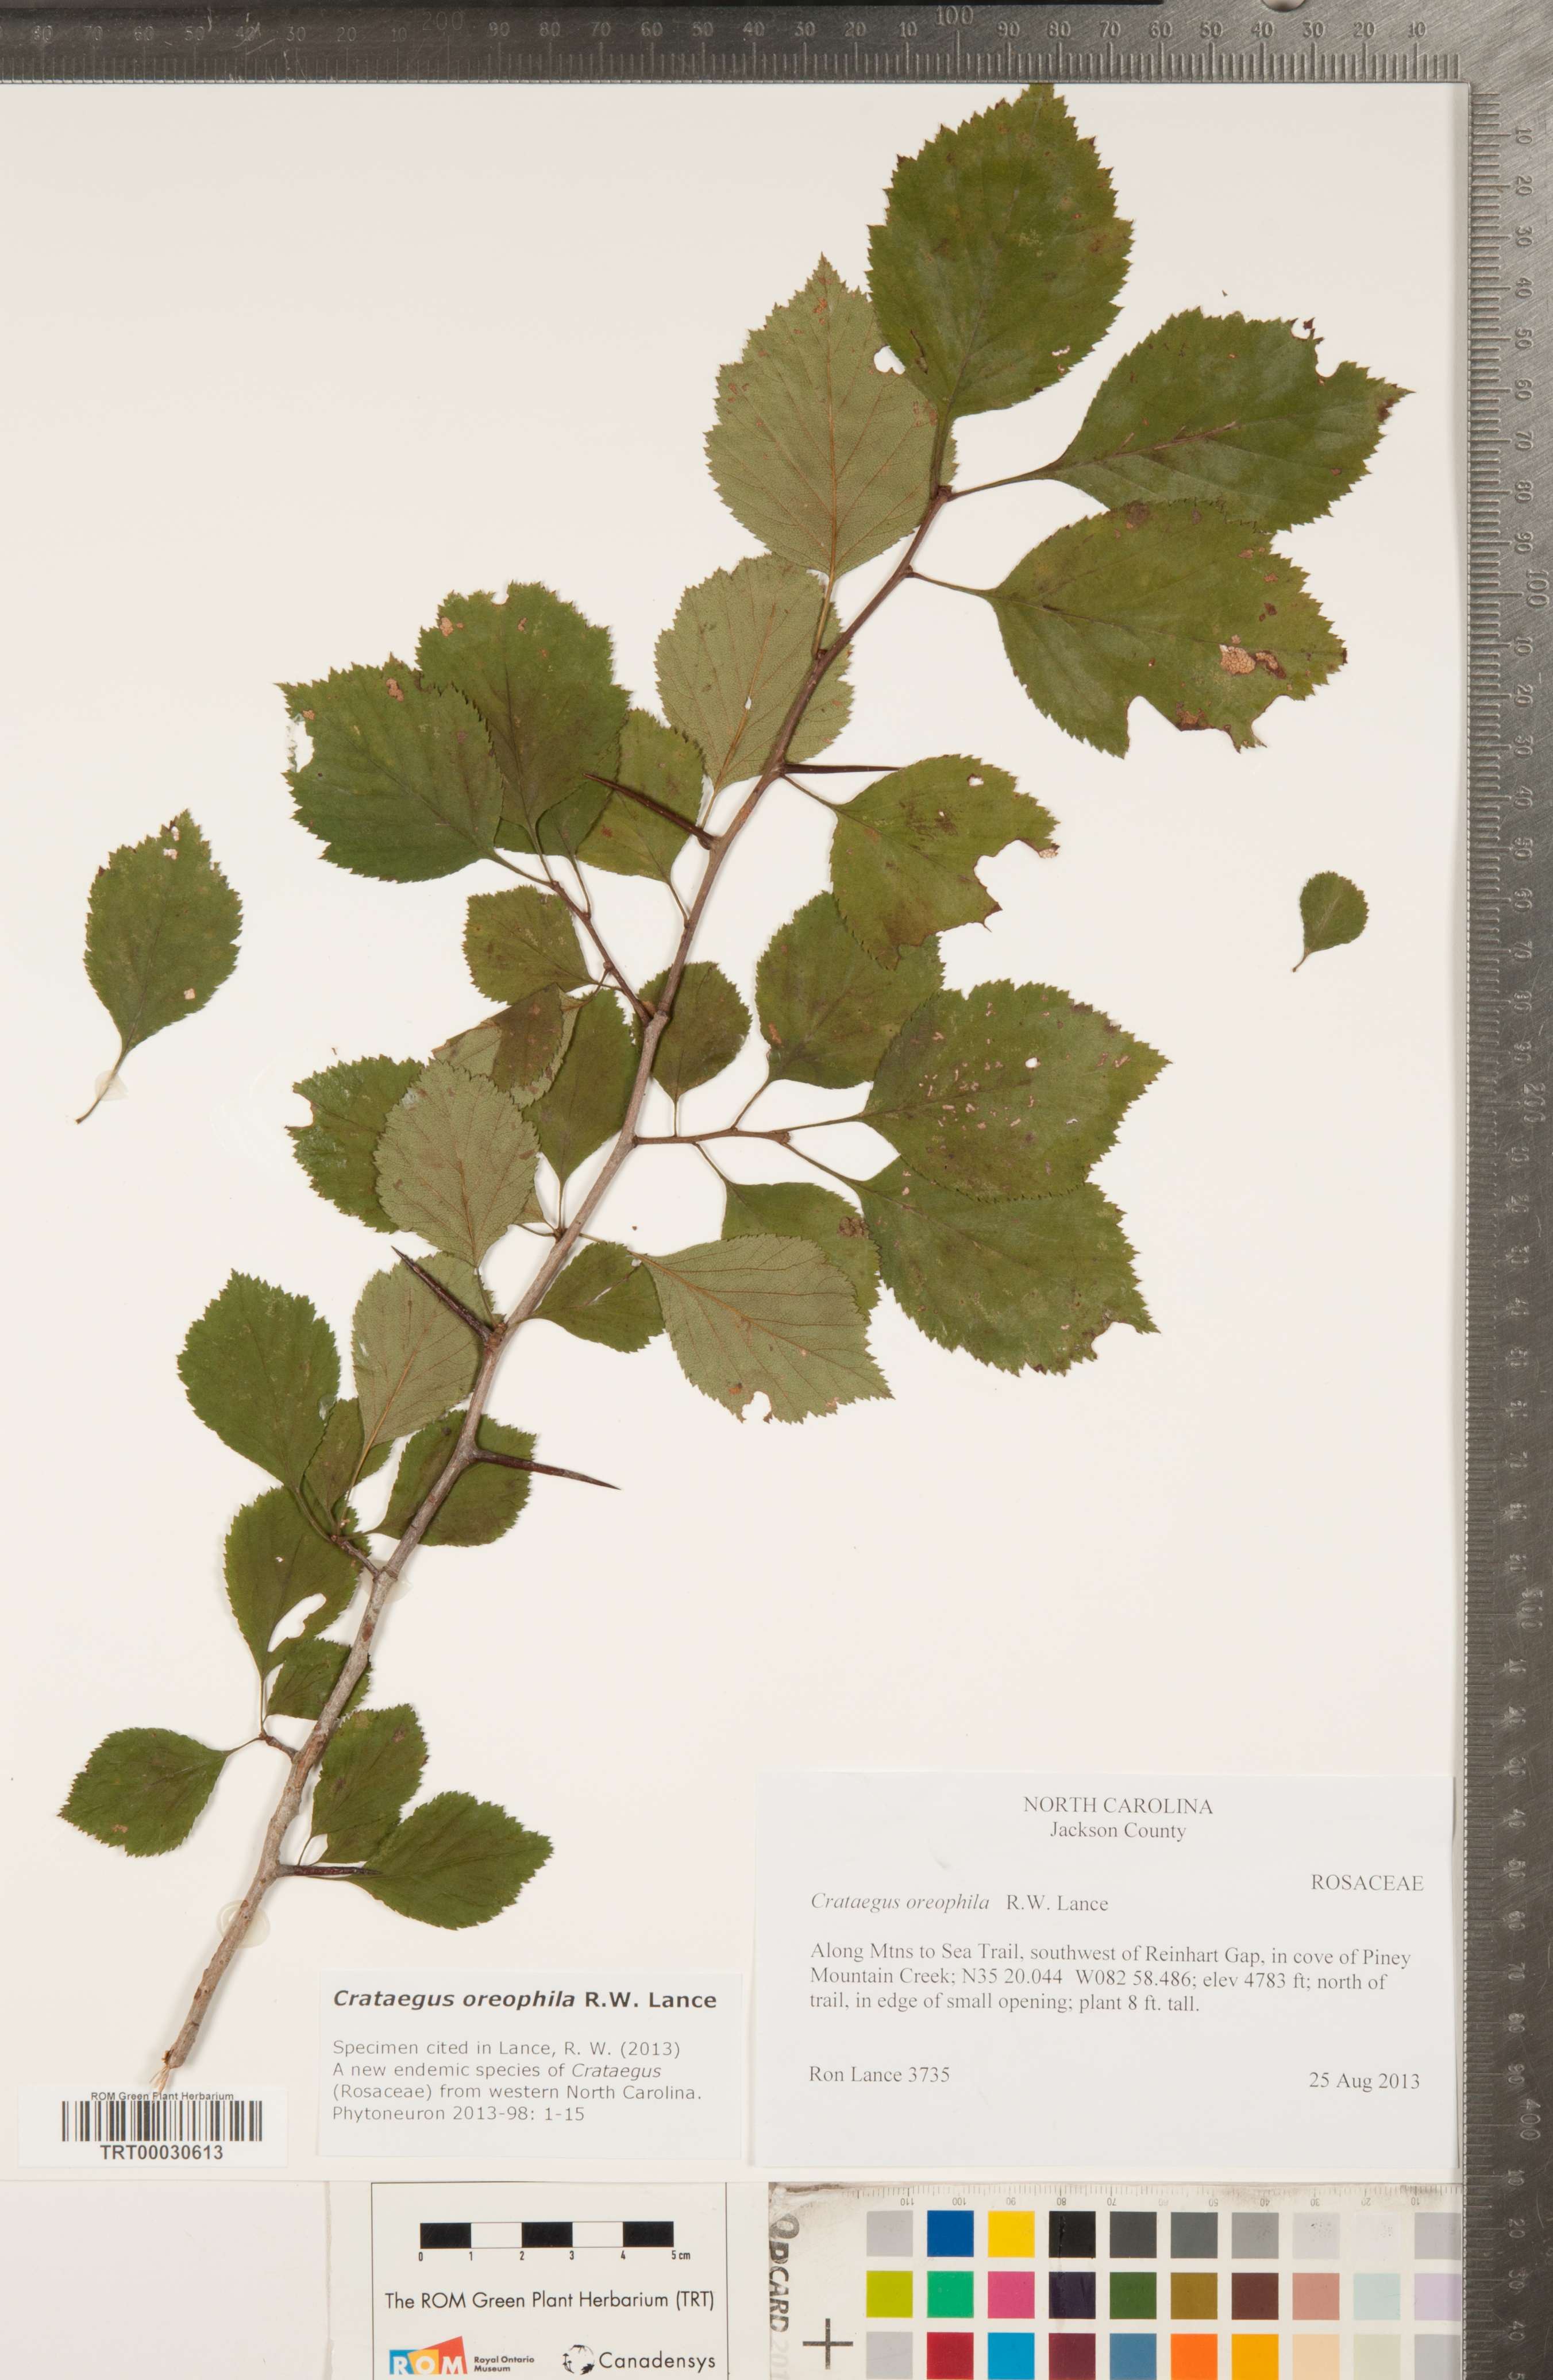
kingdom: Plantae
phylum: Tracheophyta
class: Magnoliopsida
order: Rosales
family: Rosaceae
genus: Crataegus
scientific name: Crataegus oreophila
